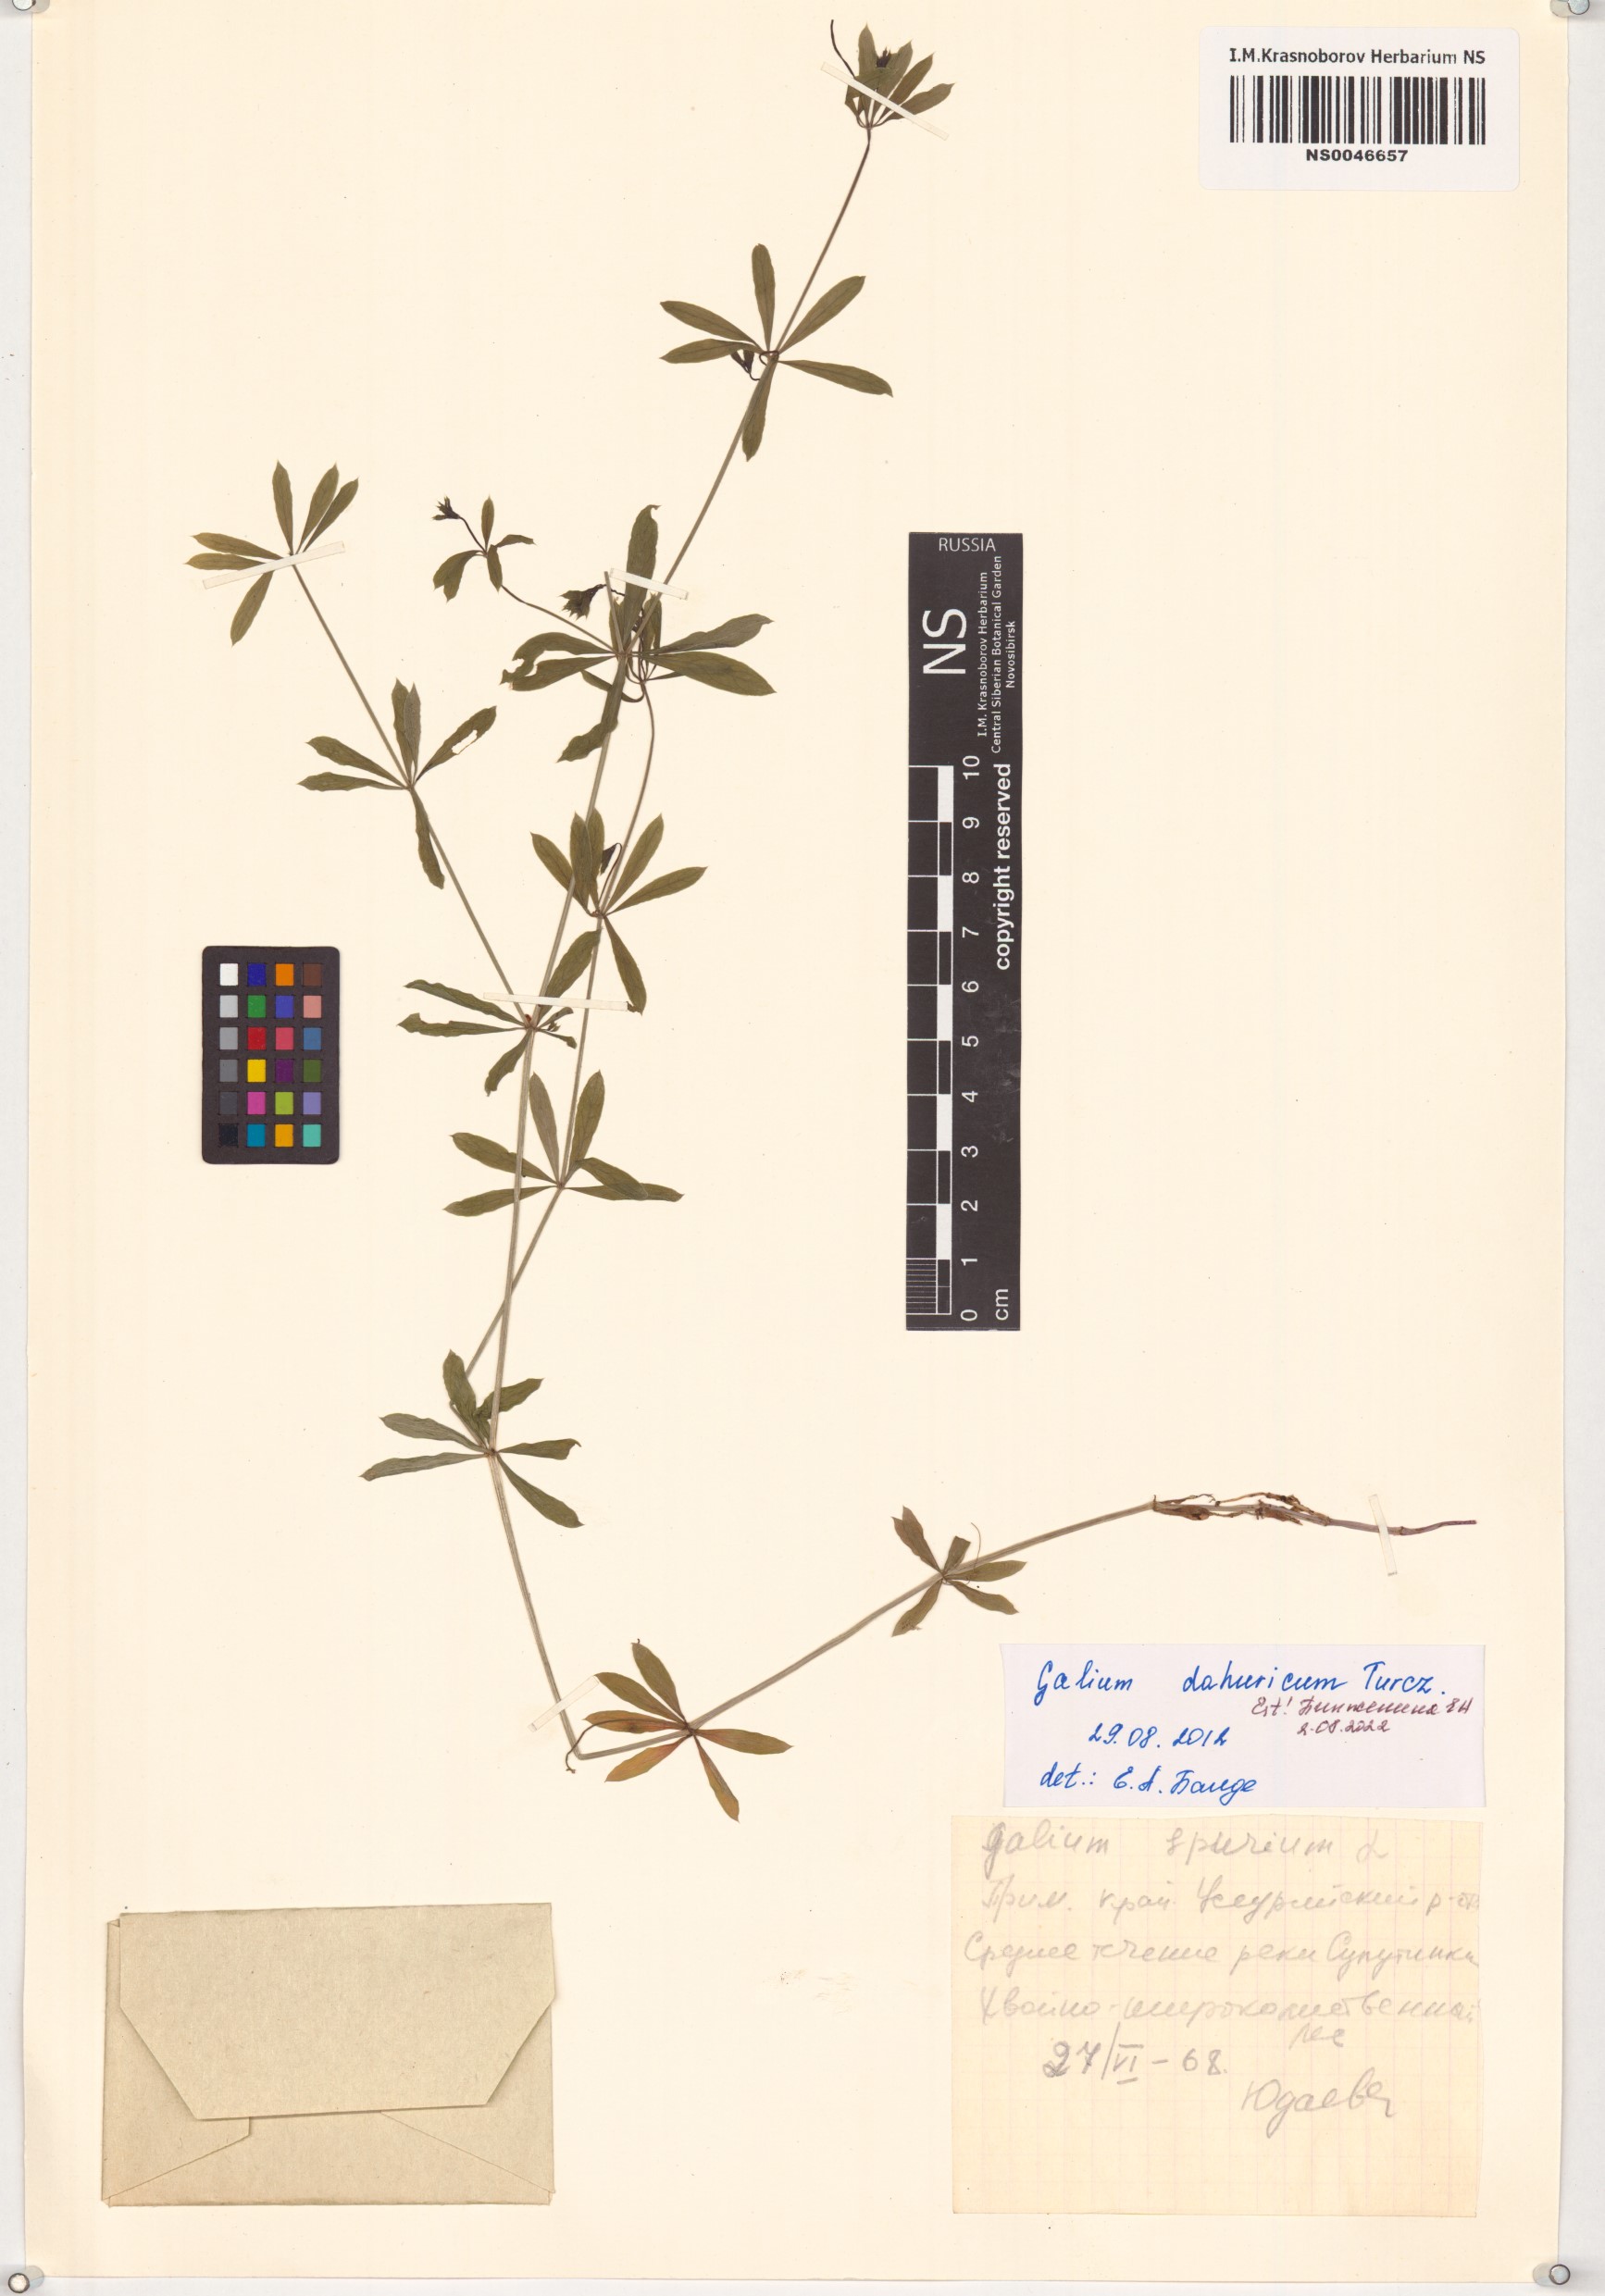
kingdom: Plantae
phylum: Tracheophyta
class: Magnoliopsida
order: Gentianales
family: Rubiaceae
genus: Galium
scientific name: Galium dahuricum
